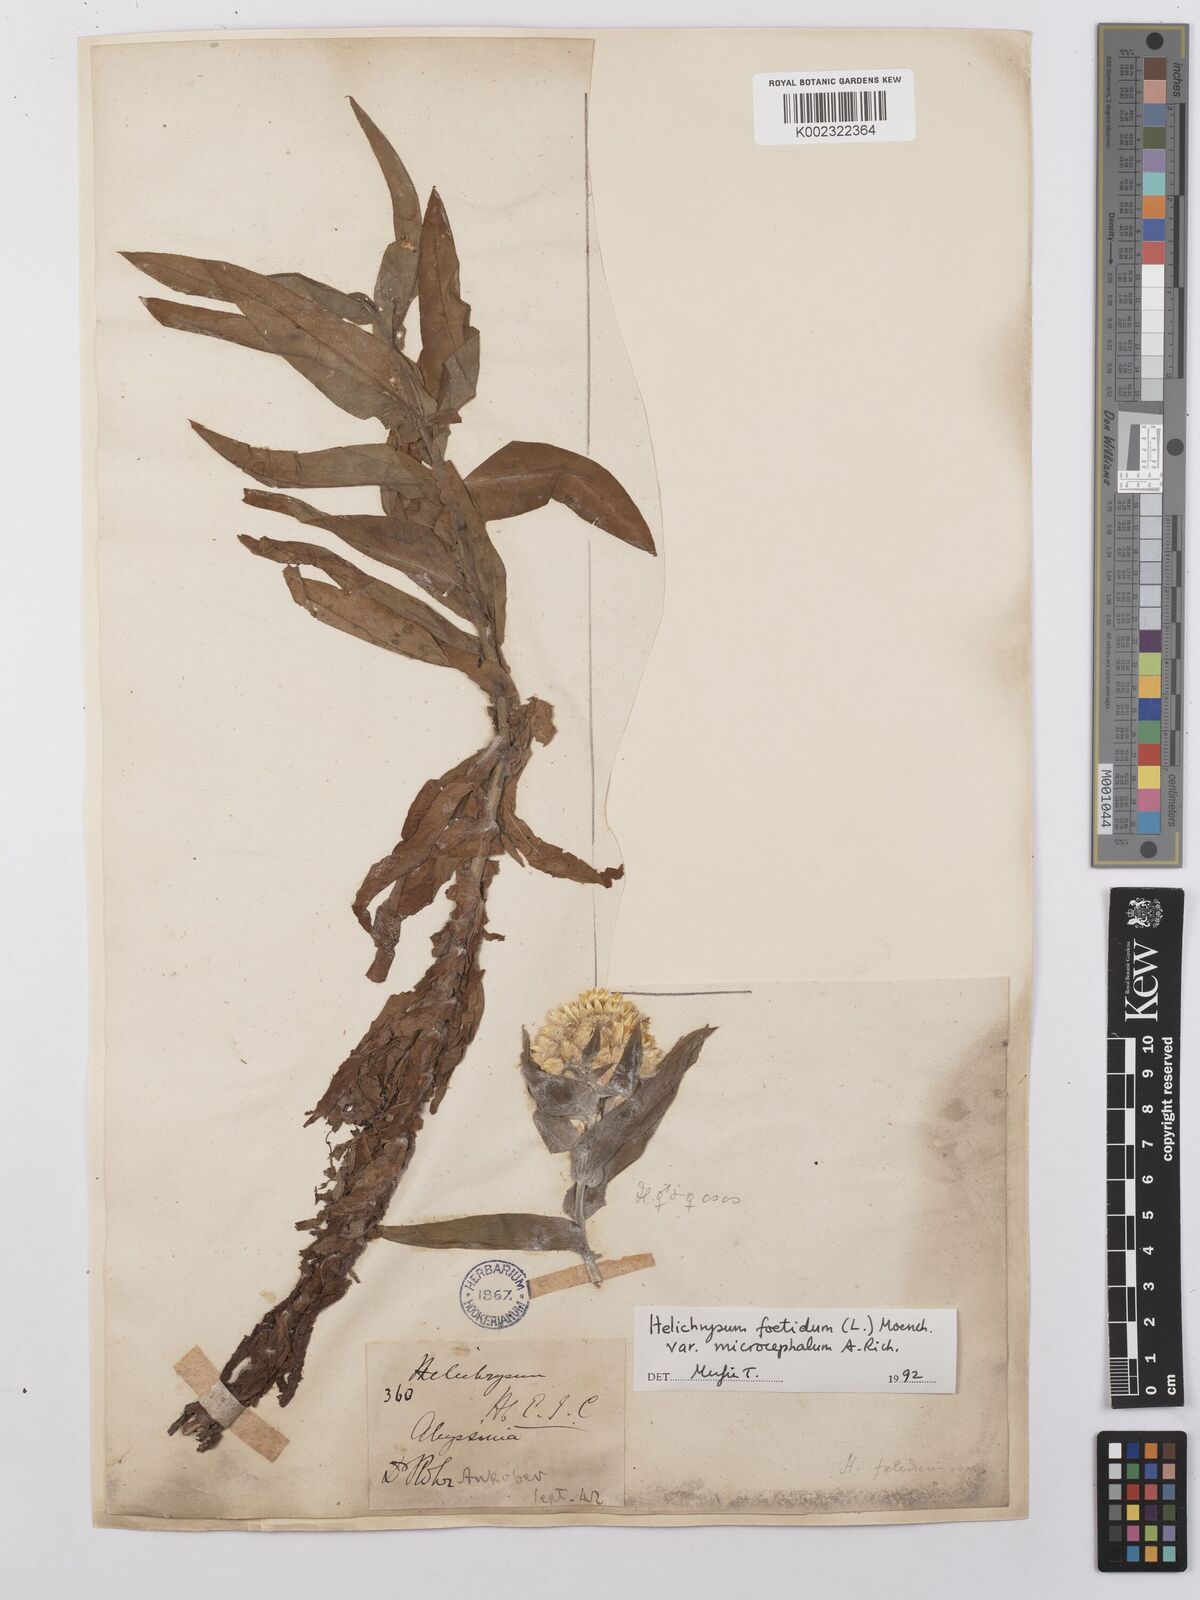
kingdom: Plantae
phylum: Tracheophyta
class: Magnoliopsida
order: Asterales
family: Asteraceae
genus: Helichrysum
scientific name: Helichrysum foetidum
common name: Stinking everlasting
